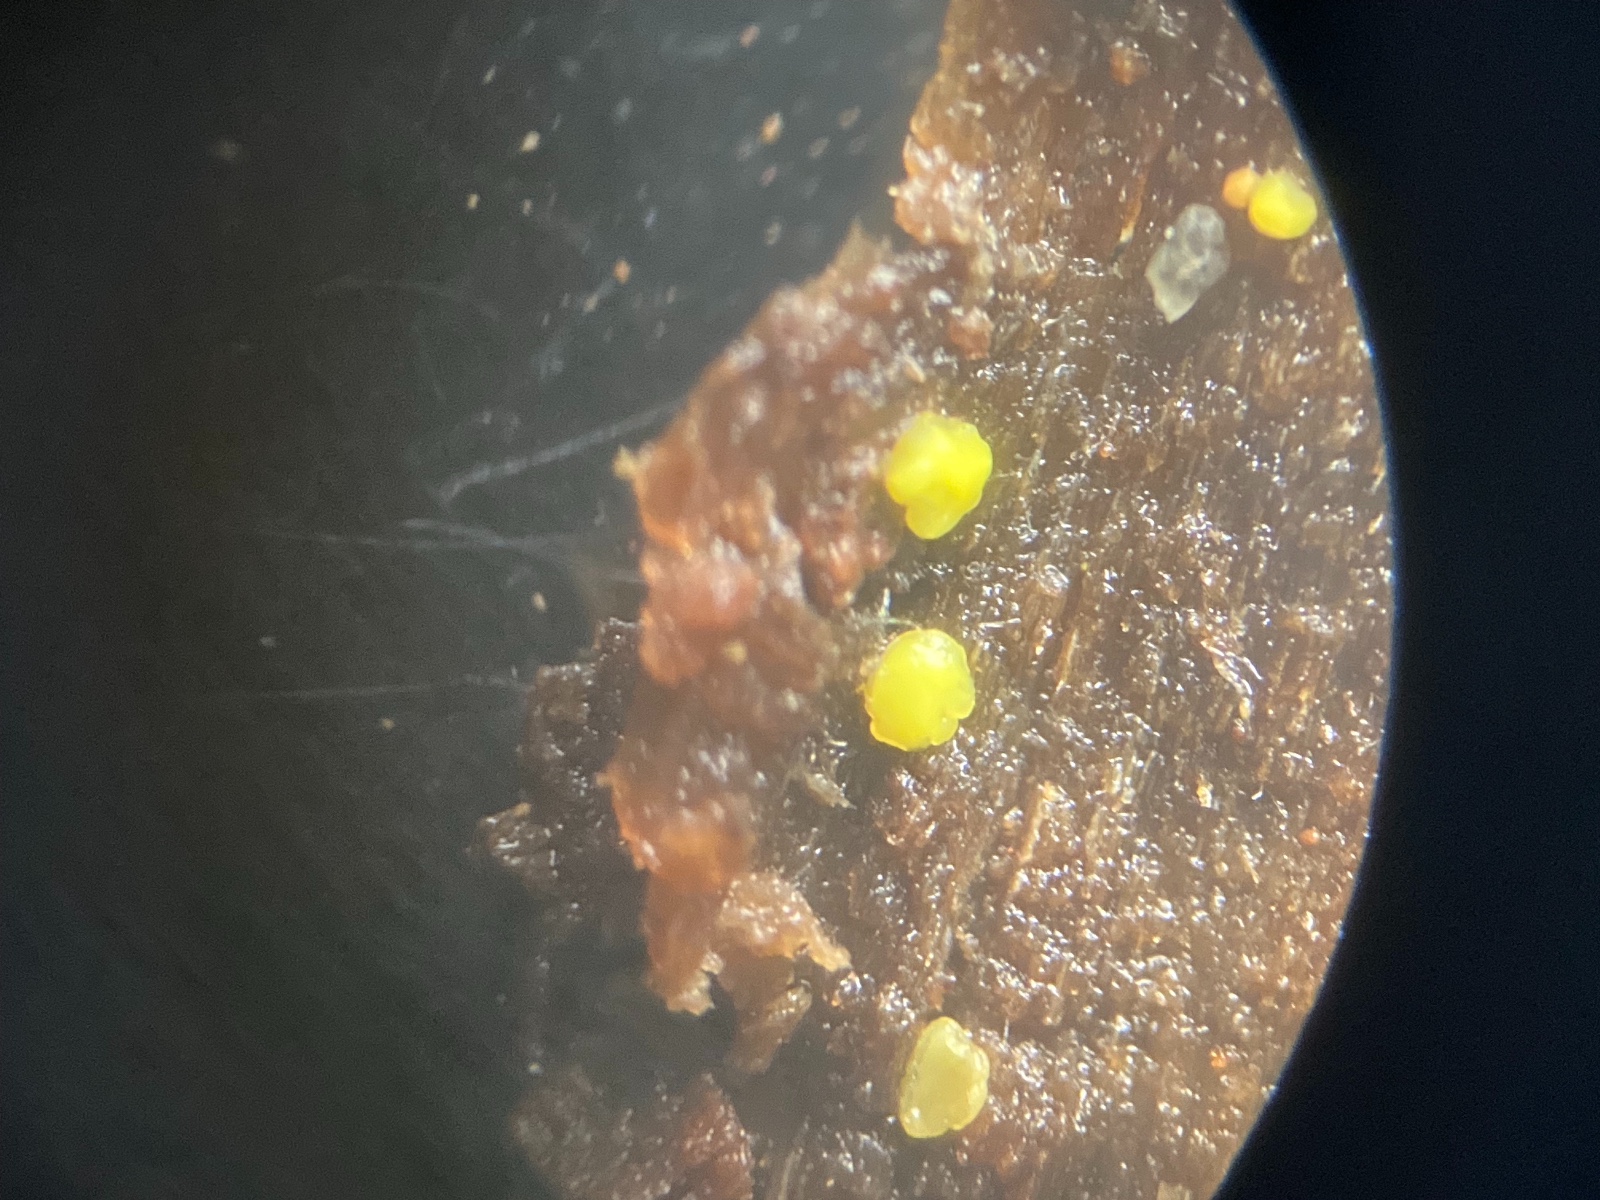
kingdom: Fungi
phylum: Ascomycota
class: Leotiomycetes
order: Helotiales
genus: Lemalis
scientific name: Lemalis aurea
